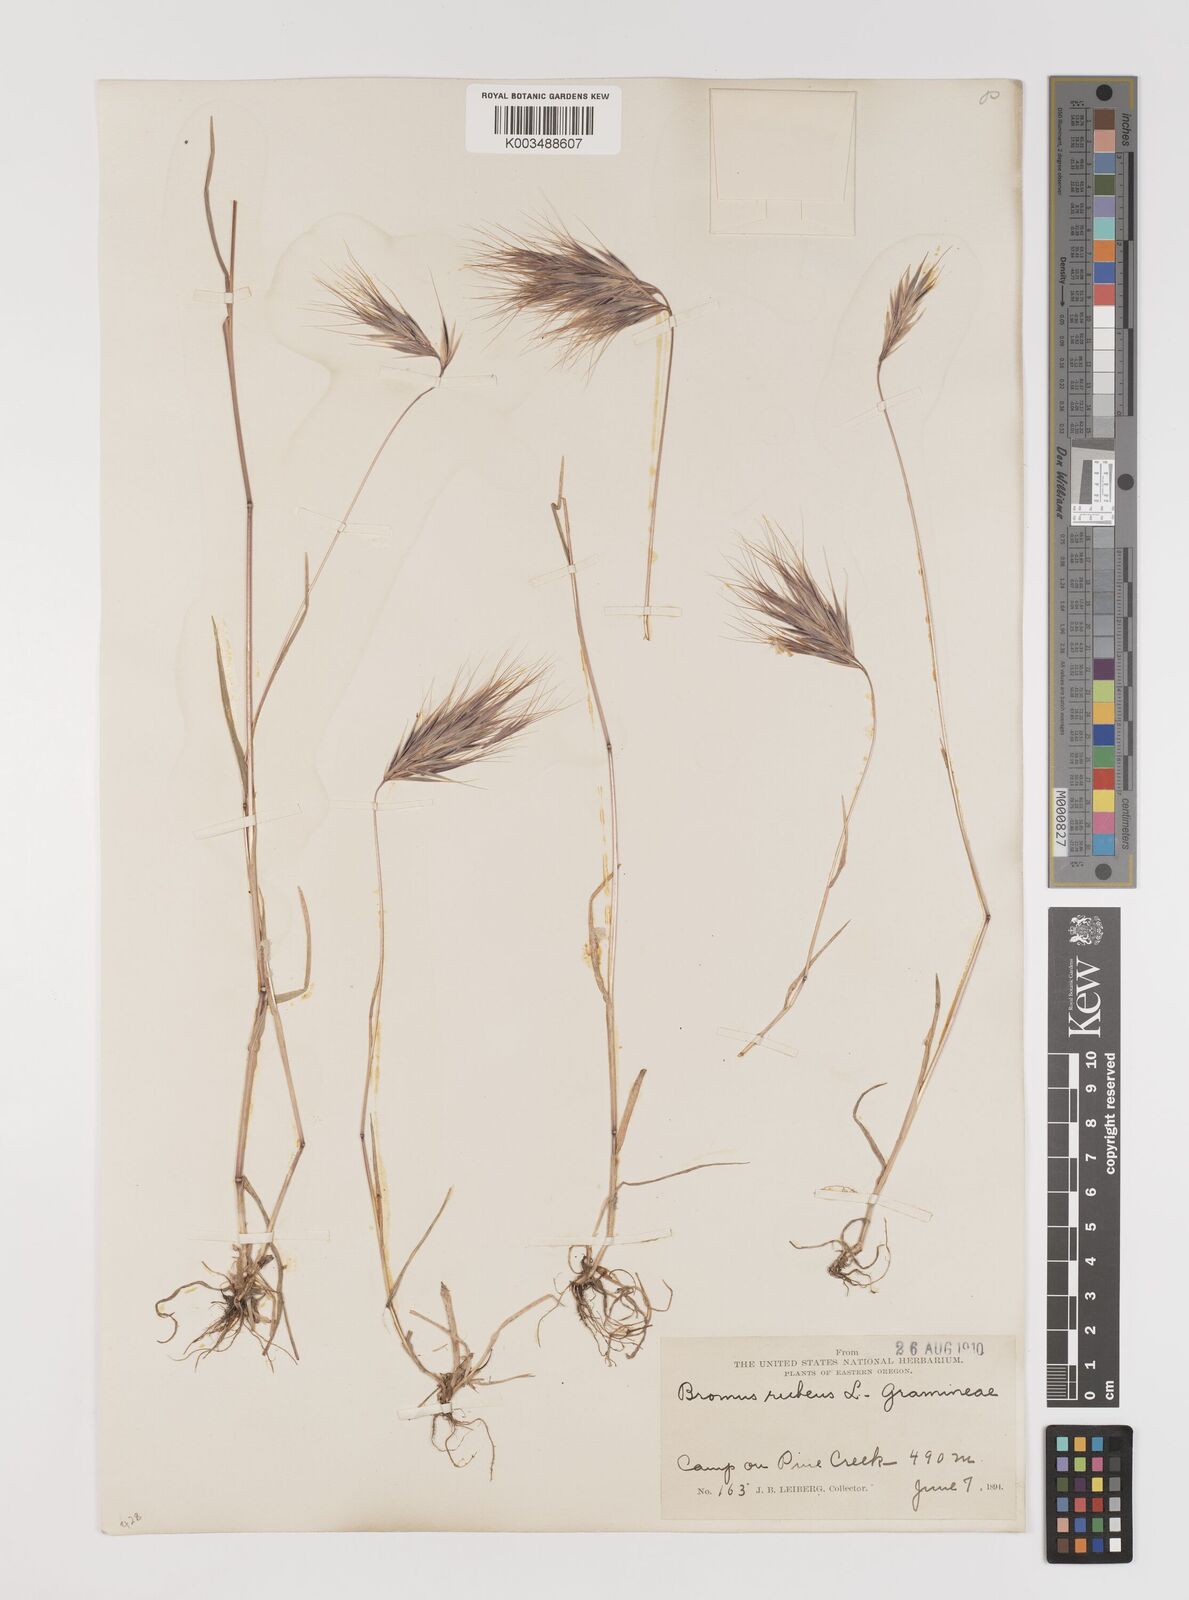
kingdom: Plantae
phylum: Tracheophyta
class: Liliopsida
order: Poales
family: Poaceae
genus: Bromus
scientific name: Bromus rubens
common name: Red brome
